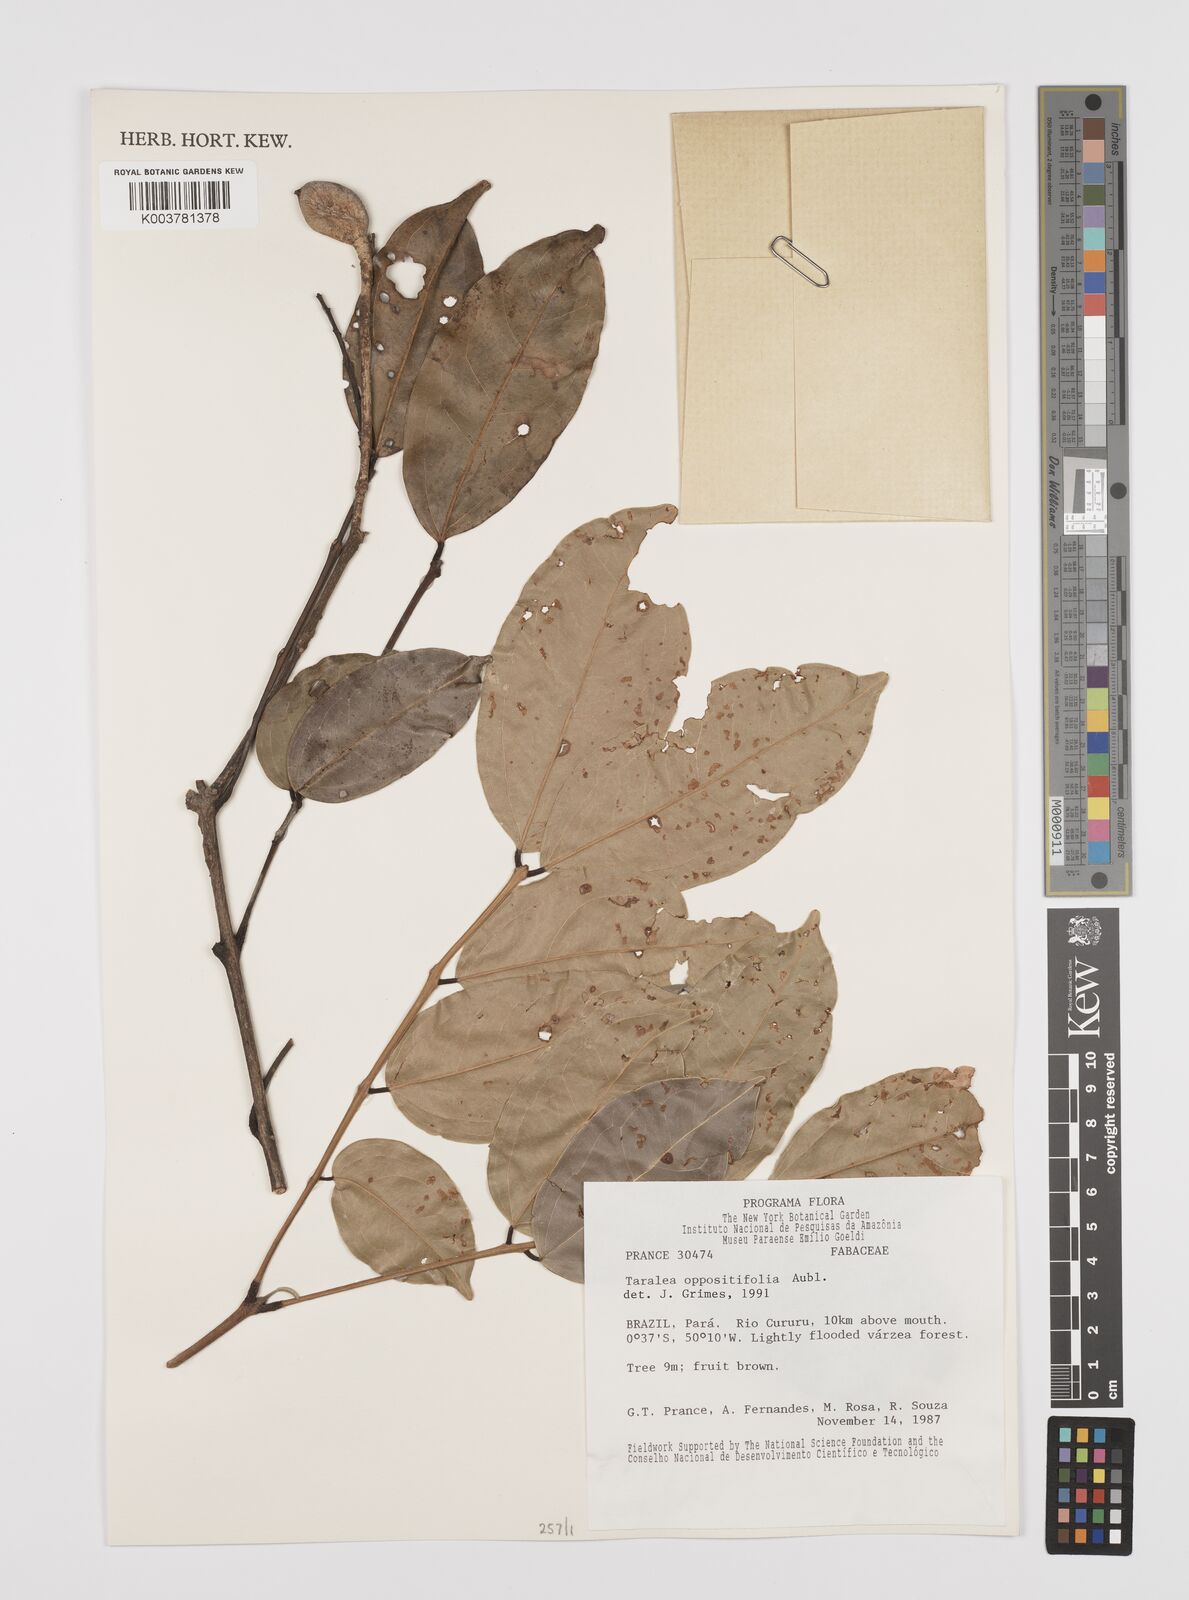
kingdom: Plantae
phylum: Tracheophyta
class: Magnoliopsida
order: Fabales
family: Fabaceae
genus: Taralea
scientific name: Taralea oppositifolia
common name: Tonka
